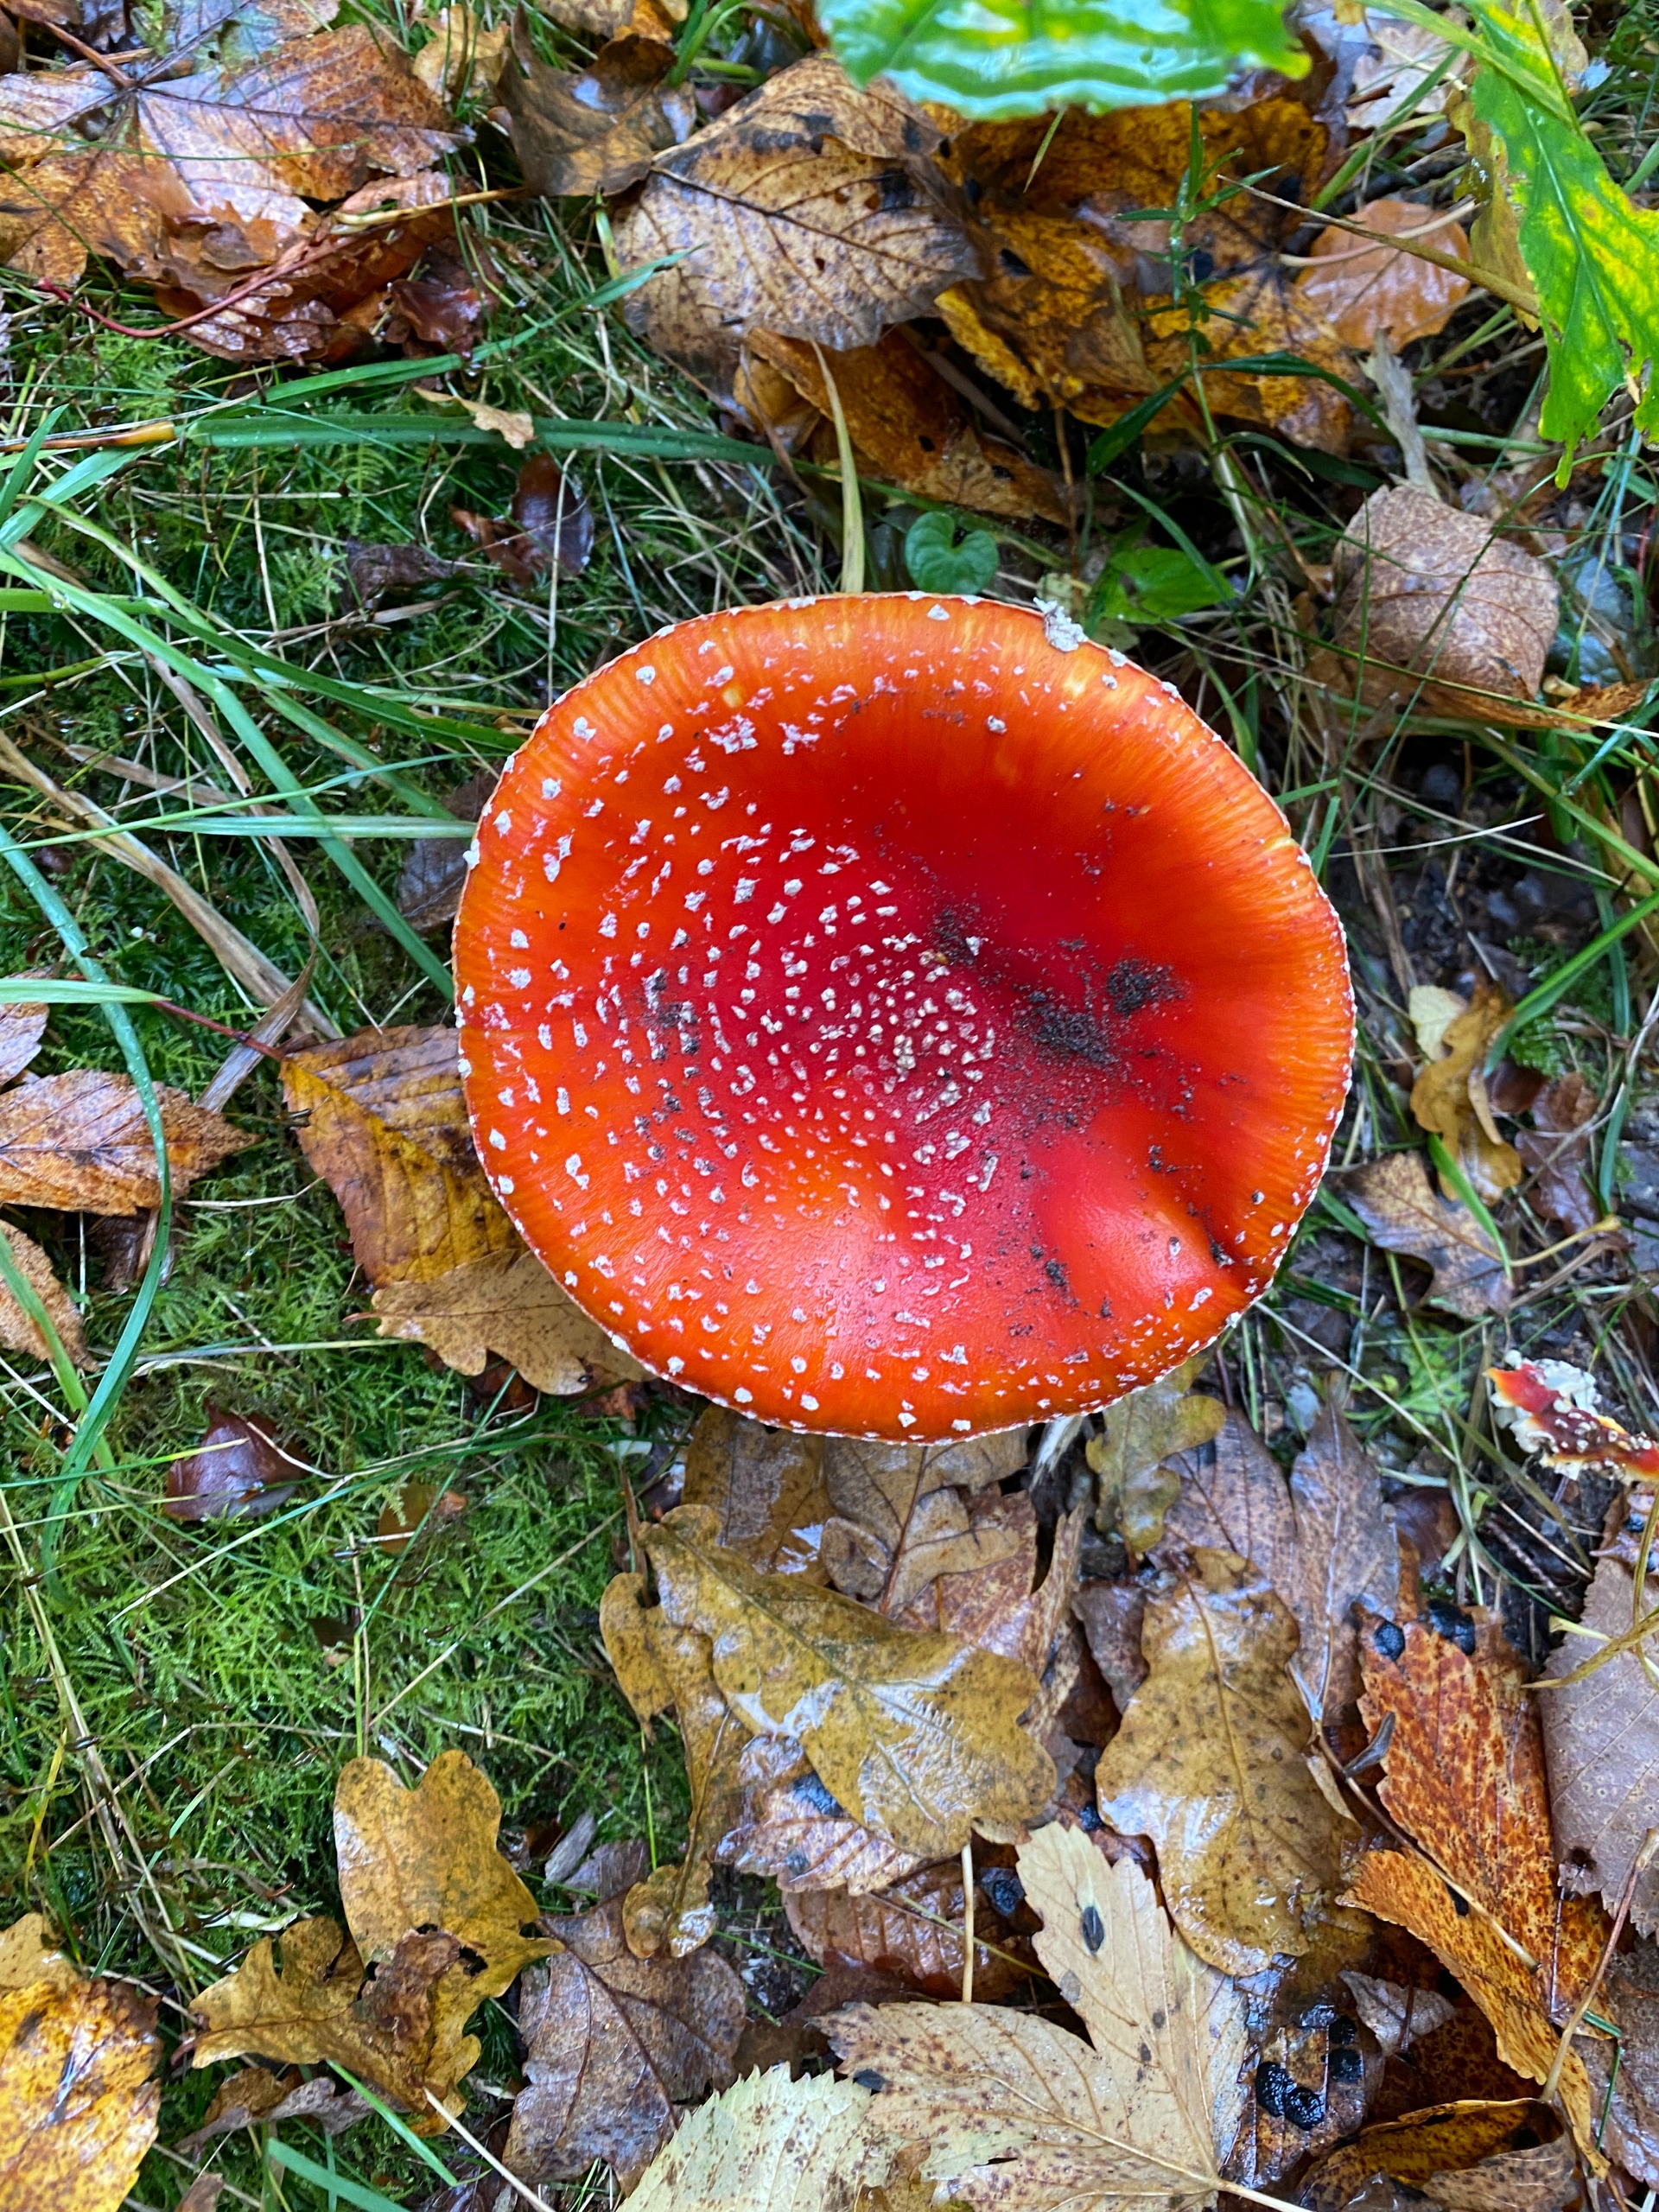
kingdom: Fungi
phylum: Basidiomycota
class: Agaricomycetes
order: Agaricales
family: Amanitaceae
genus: Amanita
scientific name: Amanita muscaria
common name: Rød fluesvamp
